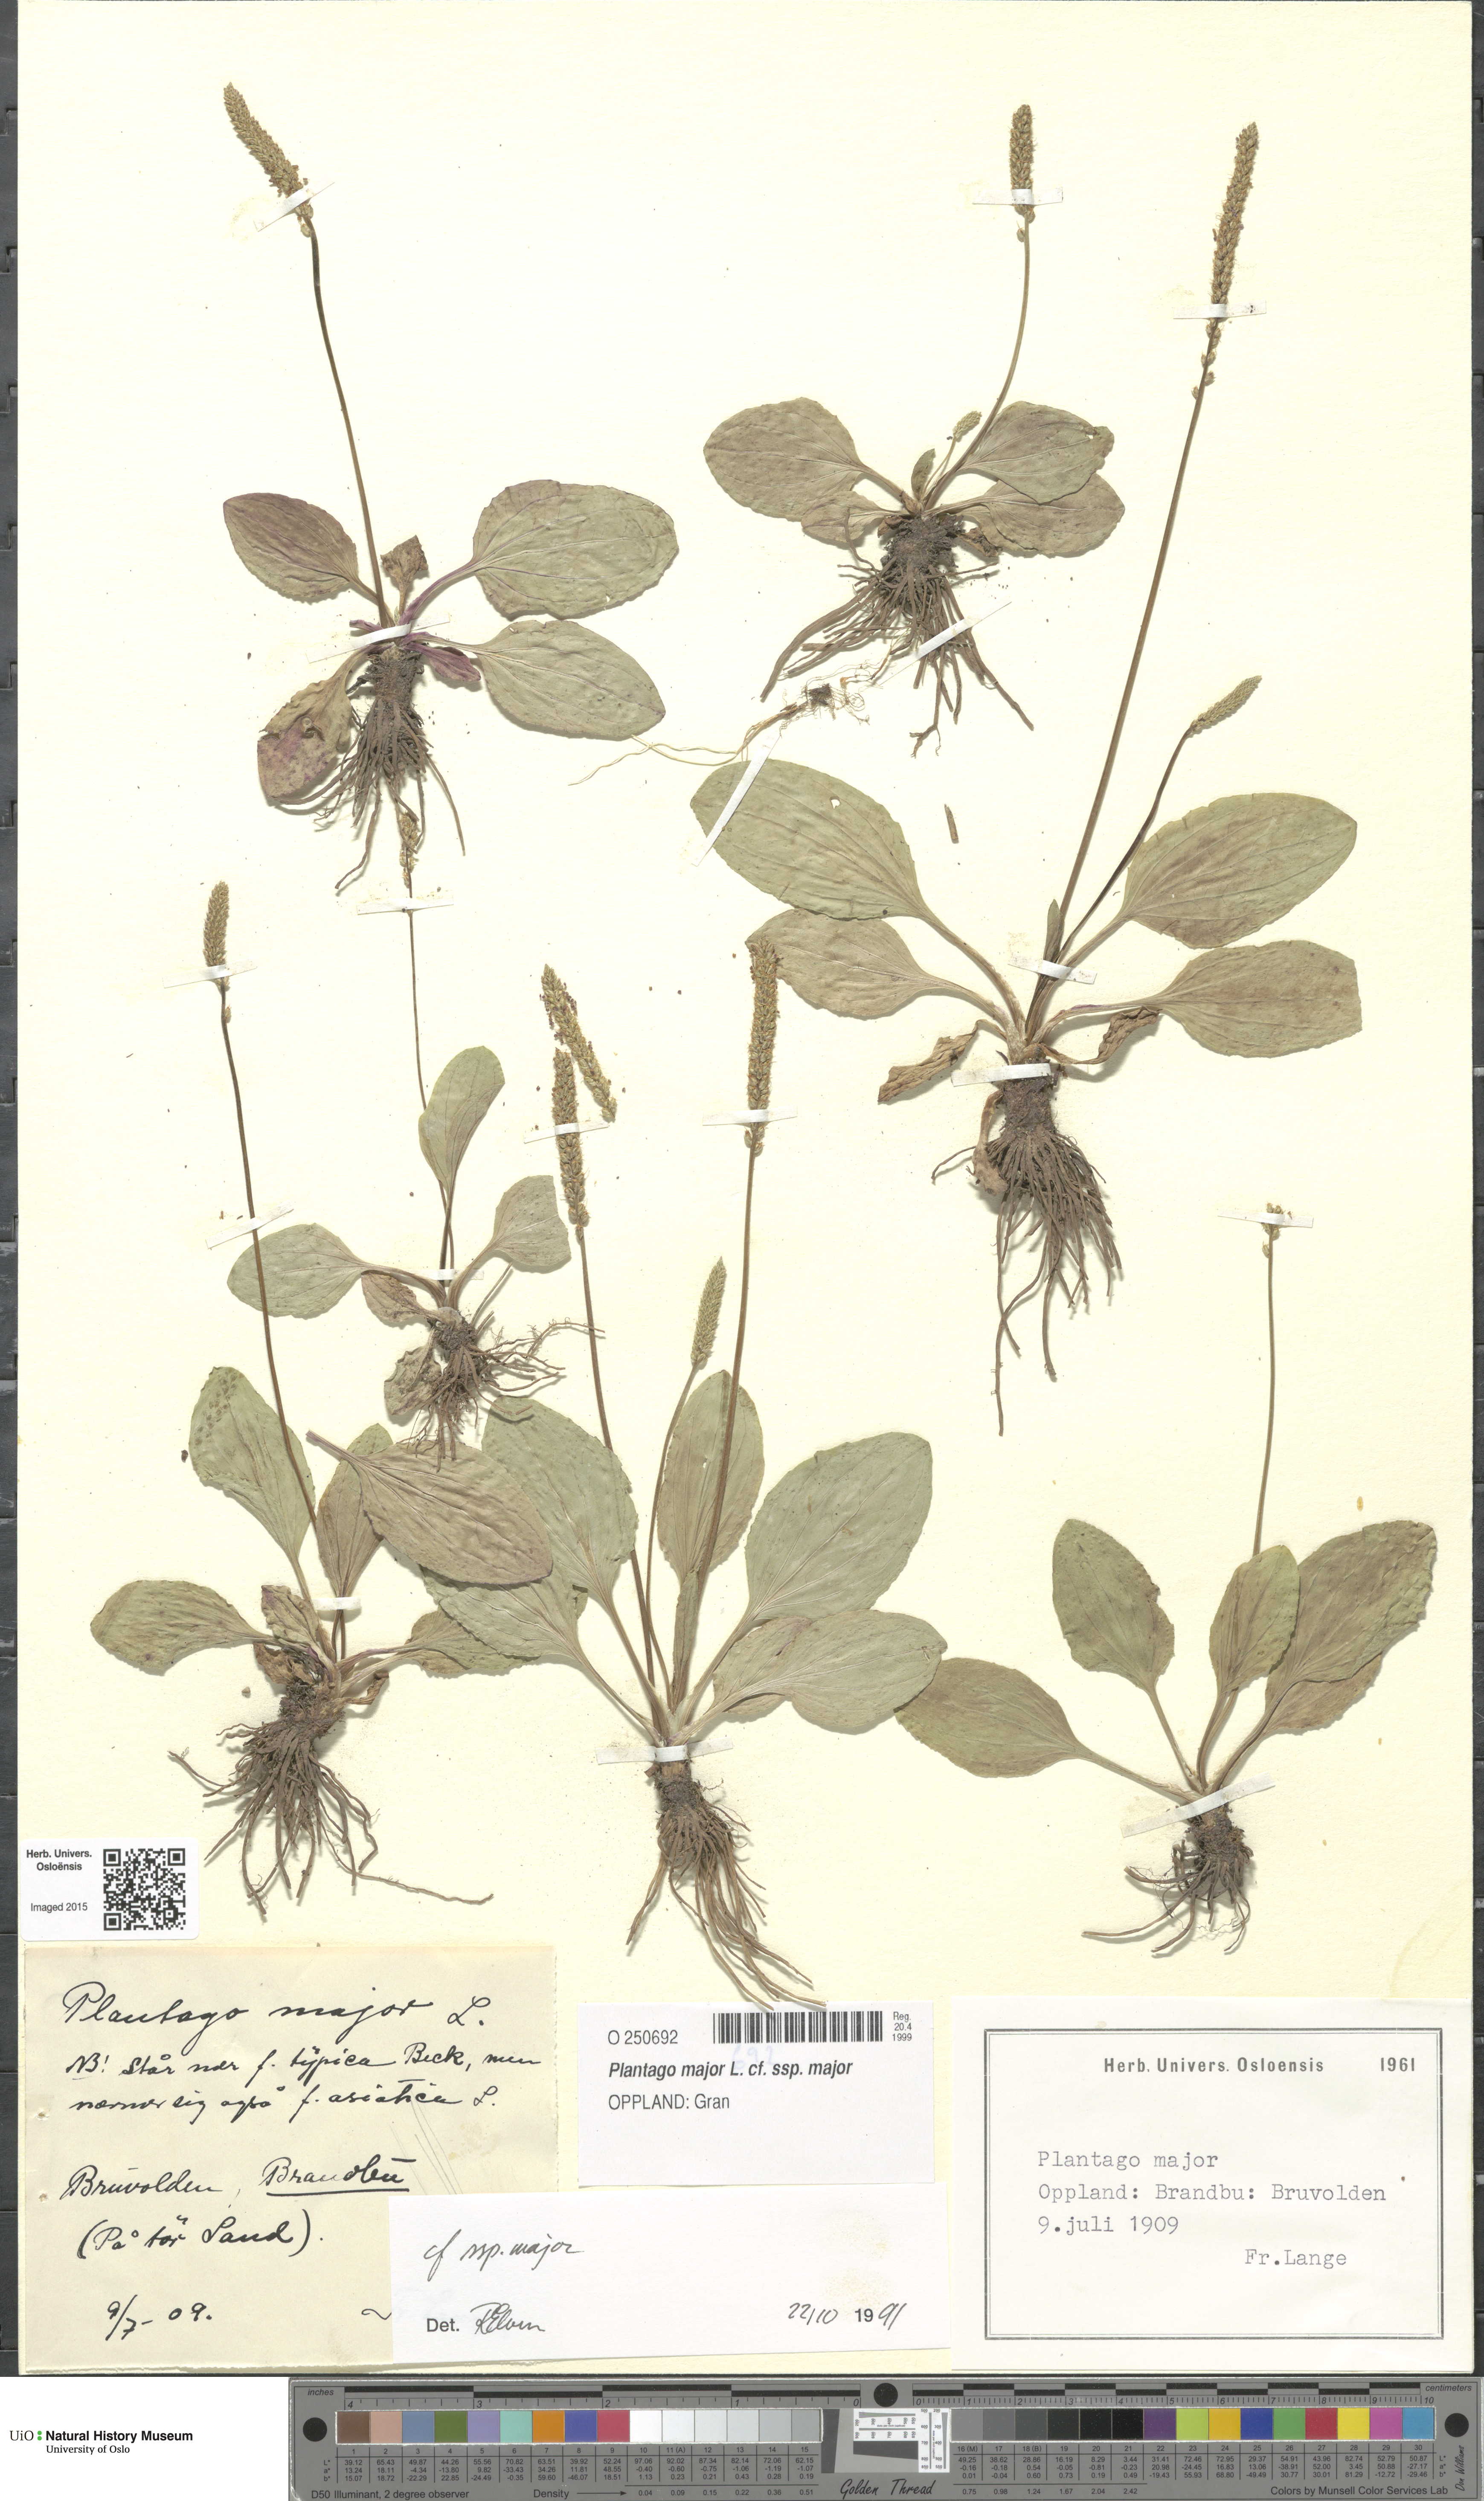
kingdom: Plantae
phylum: Tracheophyta
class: Magnoliopsida
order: Lamiales
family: Plantaginaceae
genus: Plantago
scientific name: Plantago major
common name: Common plantain
